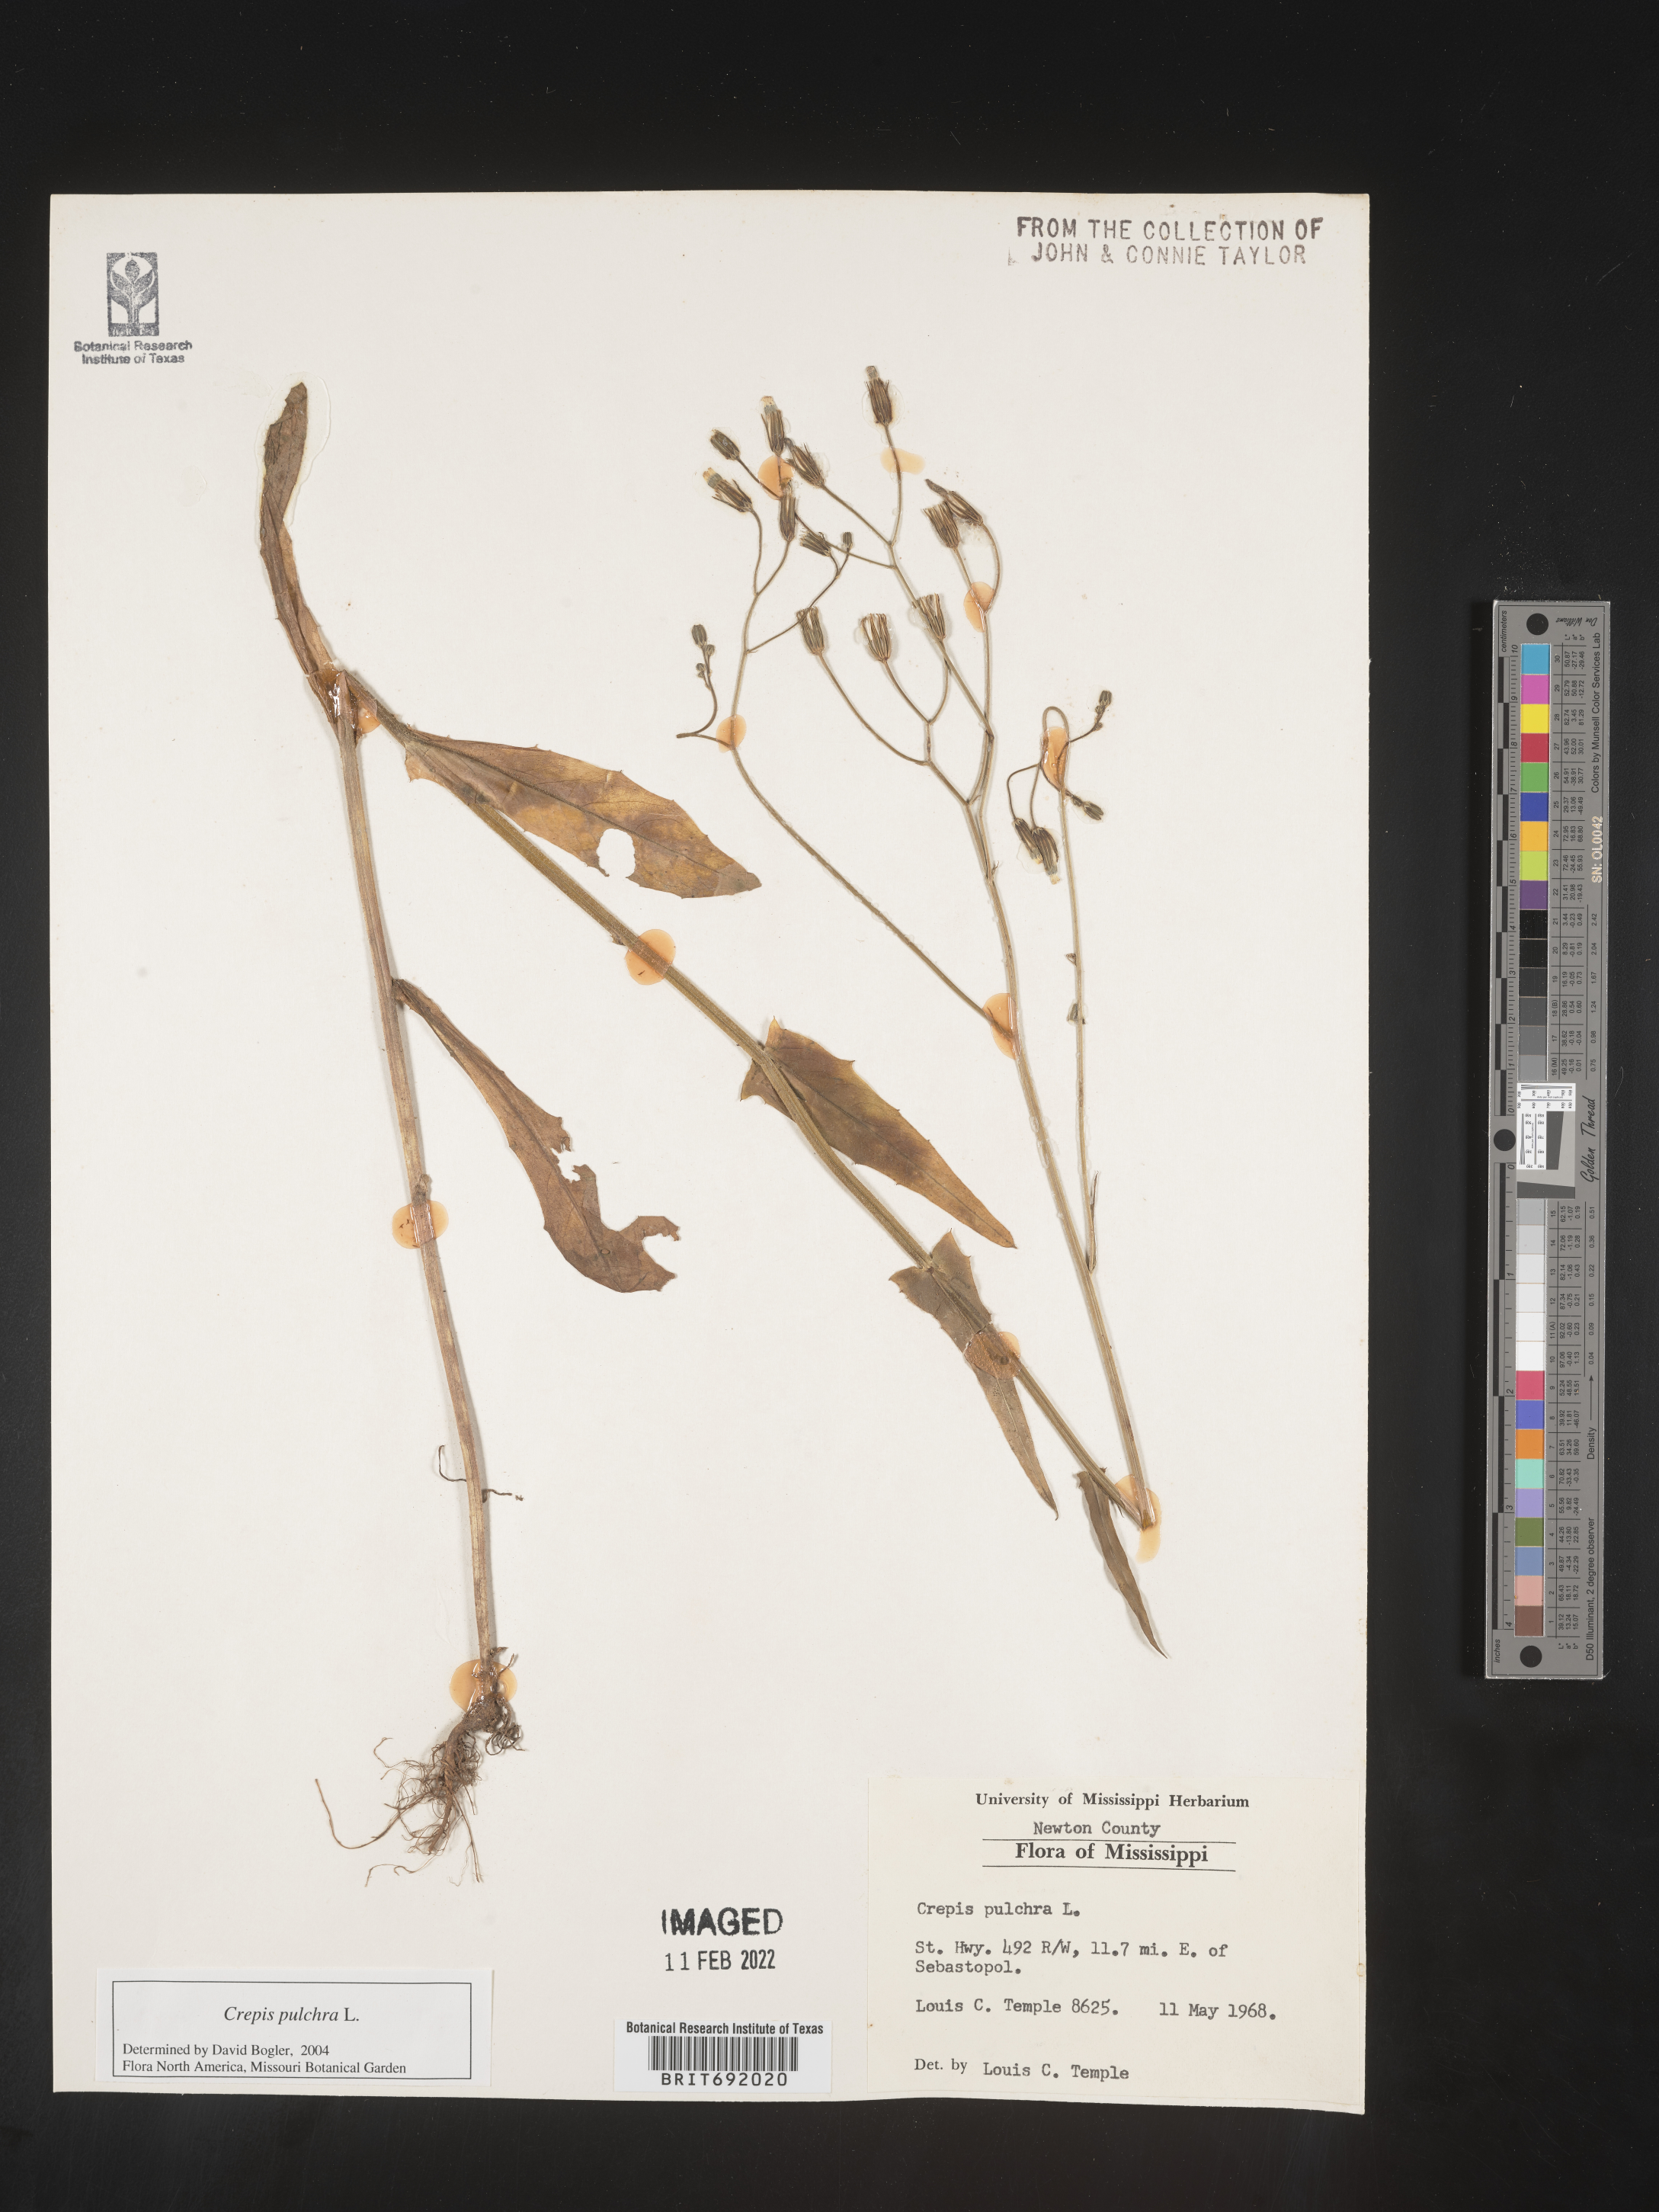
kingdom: Plantae
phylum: Tracheophyta
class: Magnoliopsida
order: Asterales
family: Asteraceae
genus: Crepis
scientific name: Crepis pulchra
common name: Hawk's-beard
